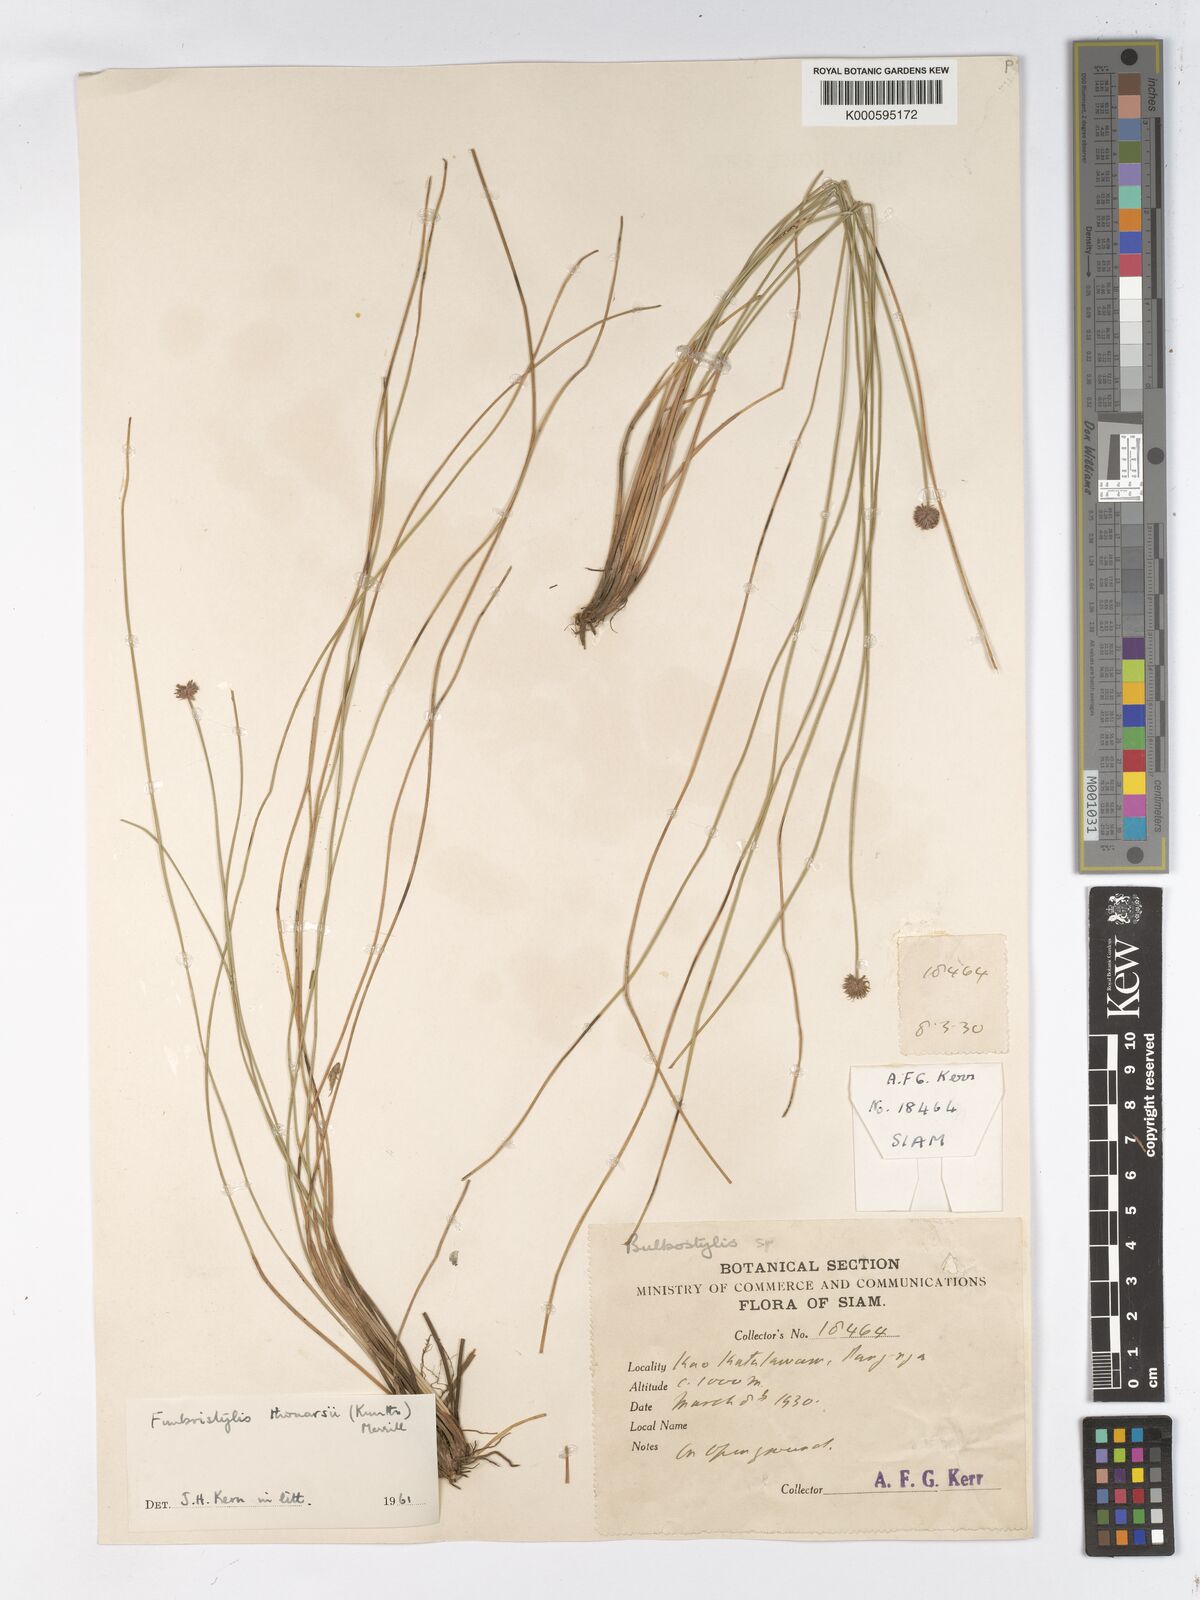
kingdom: Plantae
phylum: Tracheophyta
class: Liliopsida
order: Poales
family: Cyperaceae
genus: Actinoschoenus
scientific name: Actinoschoenus aphyllus
